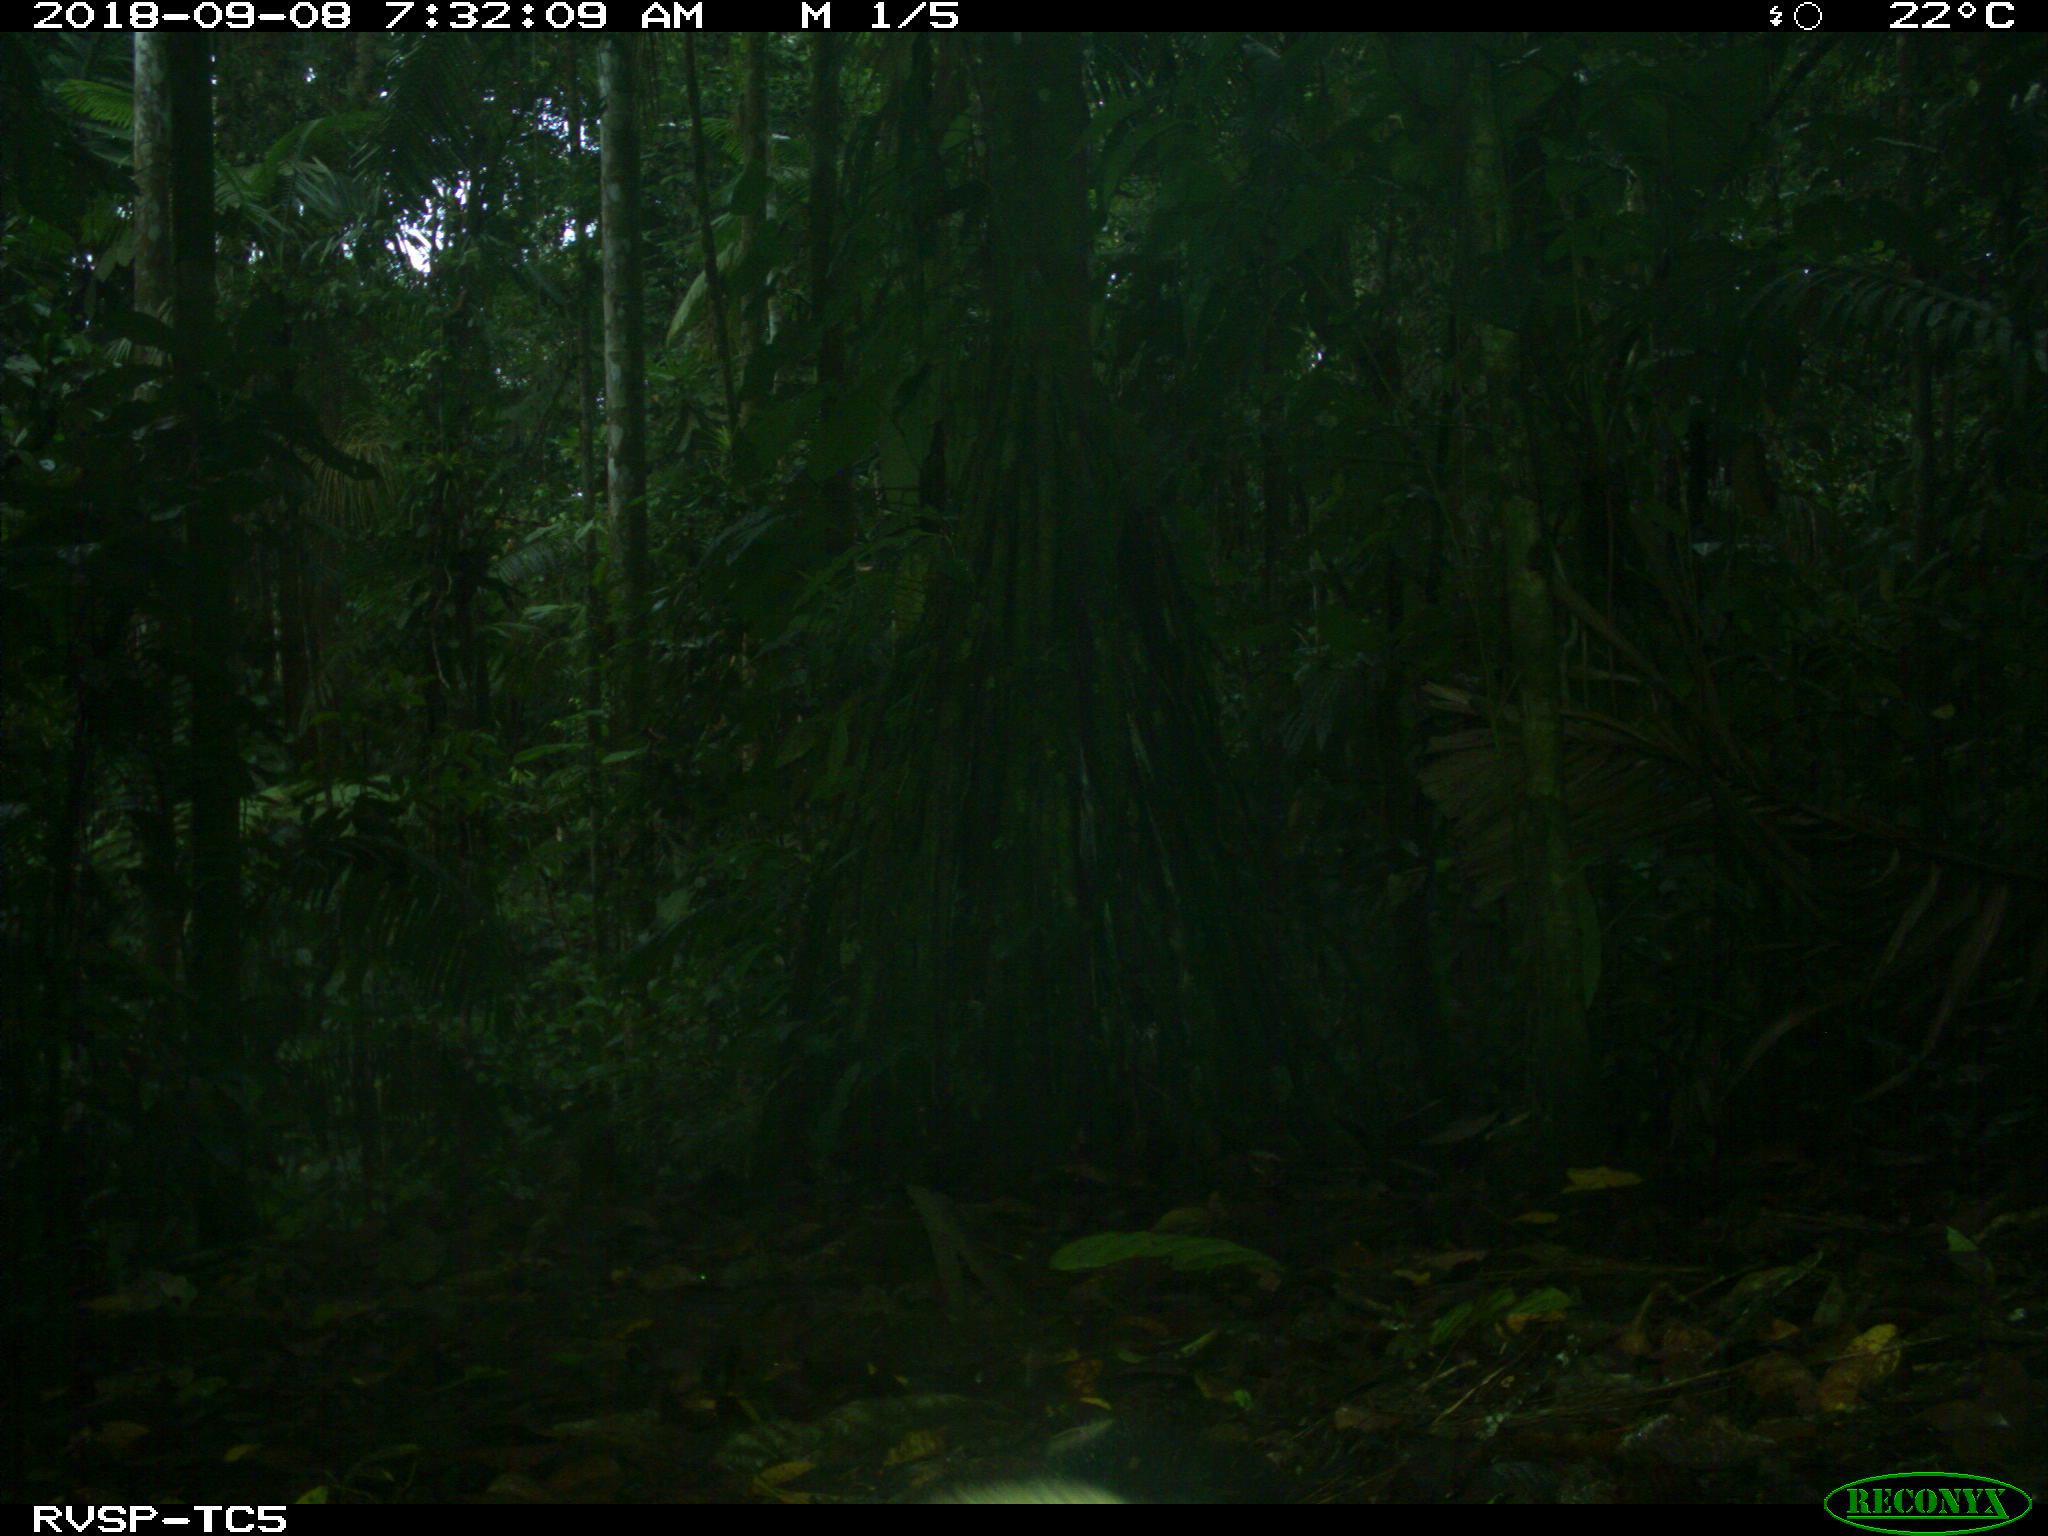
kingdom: Animalia
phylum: Chordata
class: Mammalia
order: Carnivora
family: Mustelidae
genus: Eira
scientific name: Eira barbara
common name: Tayra
